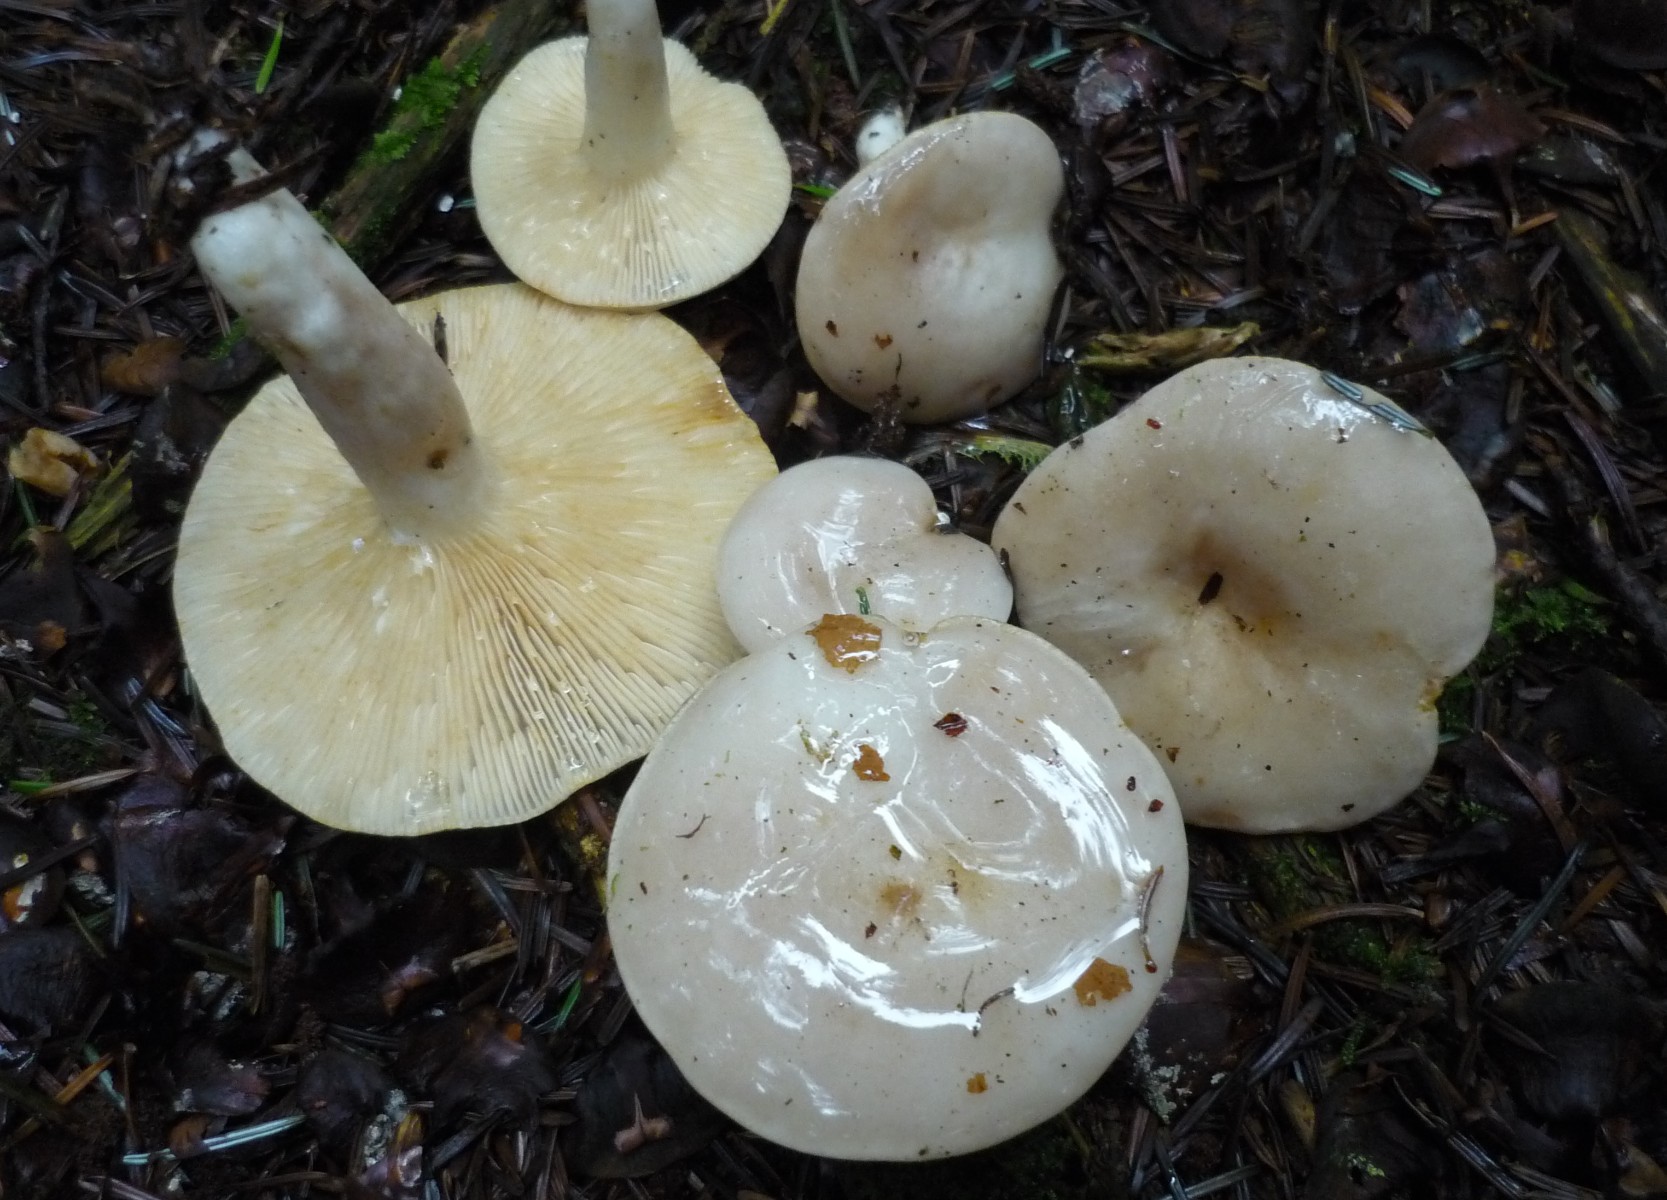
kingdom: Fungi
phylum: Basidiomycota
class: Agaricomycetes
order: Russulales
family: Russulaceae
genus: Lactarius
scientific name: Lactarius albocarneus
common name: ædelgran-mælkehat
